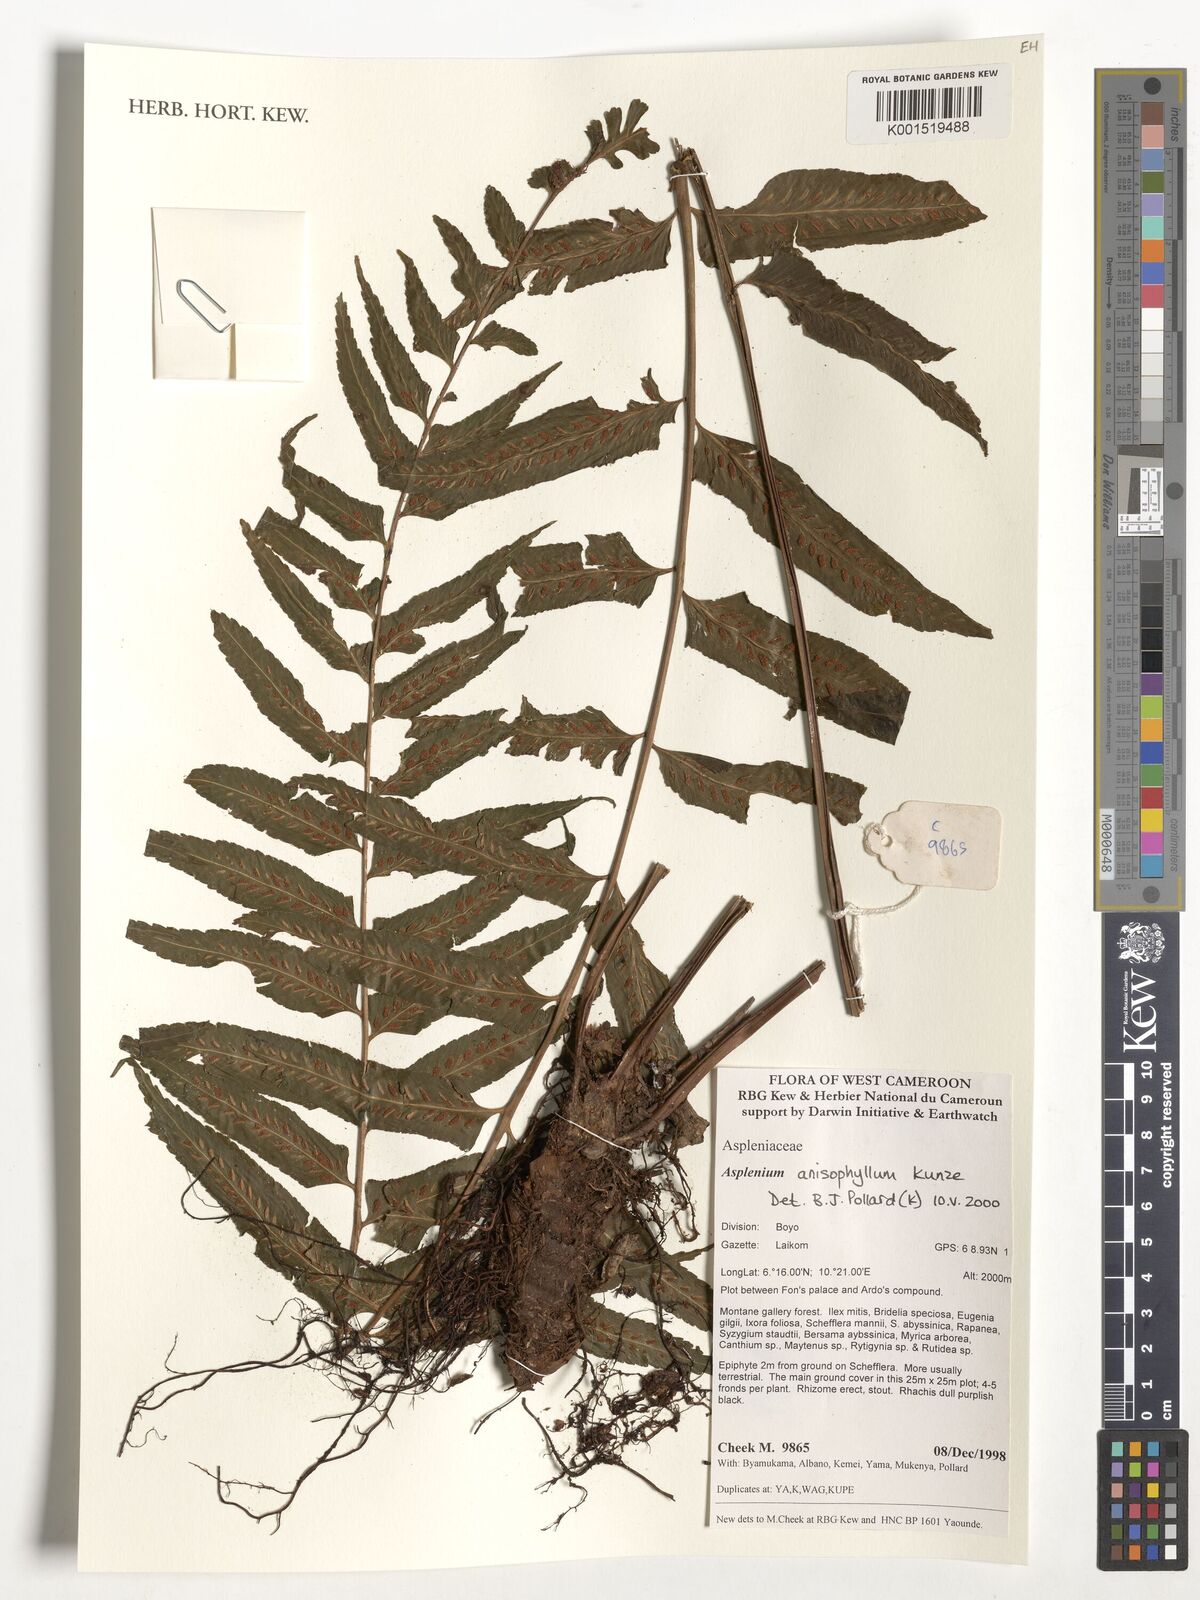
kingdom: Plantae
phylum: Tracheophyta
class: Polypodiopsida
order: Polypodiales
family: Aspleniaceae
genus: Asplenium
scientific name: Asplenium anisophyllum
